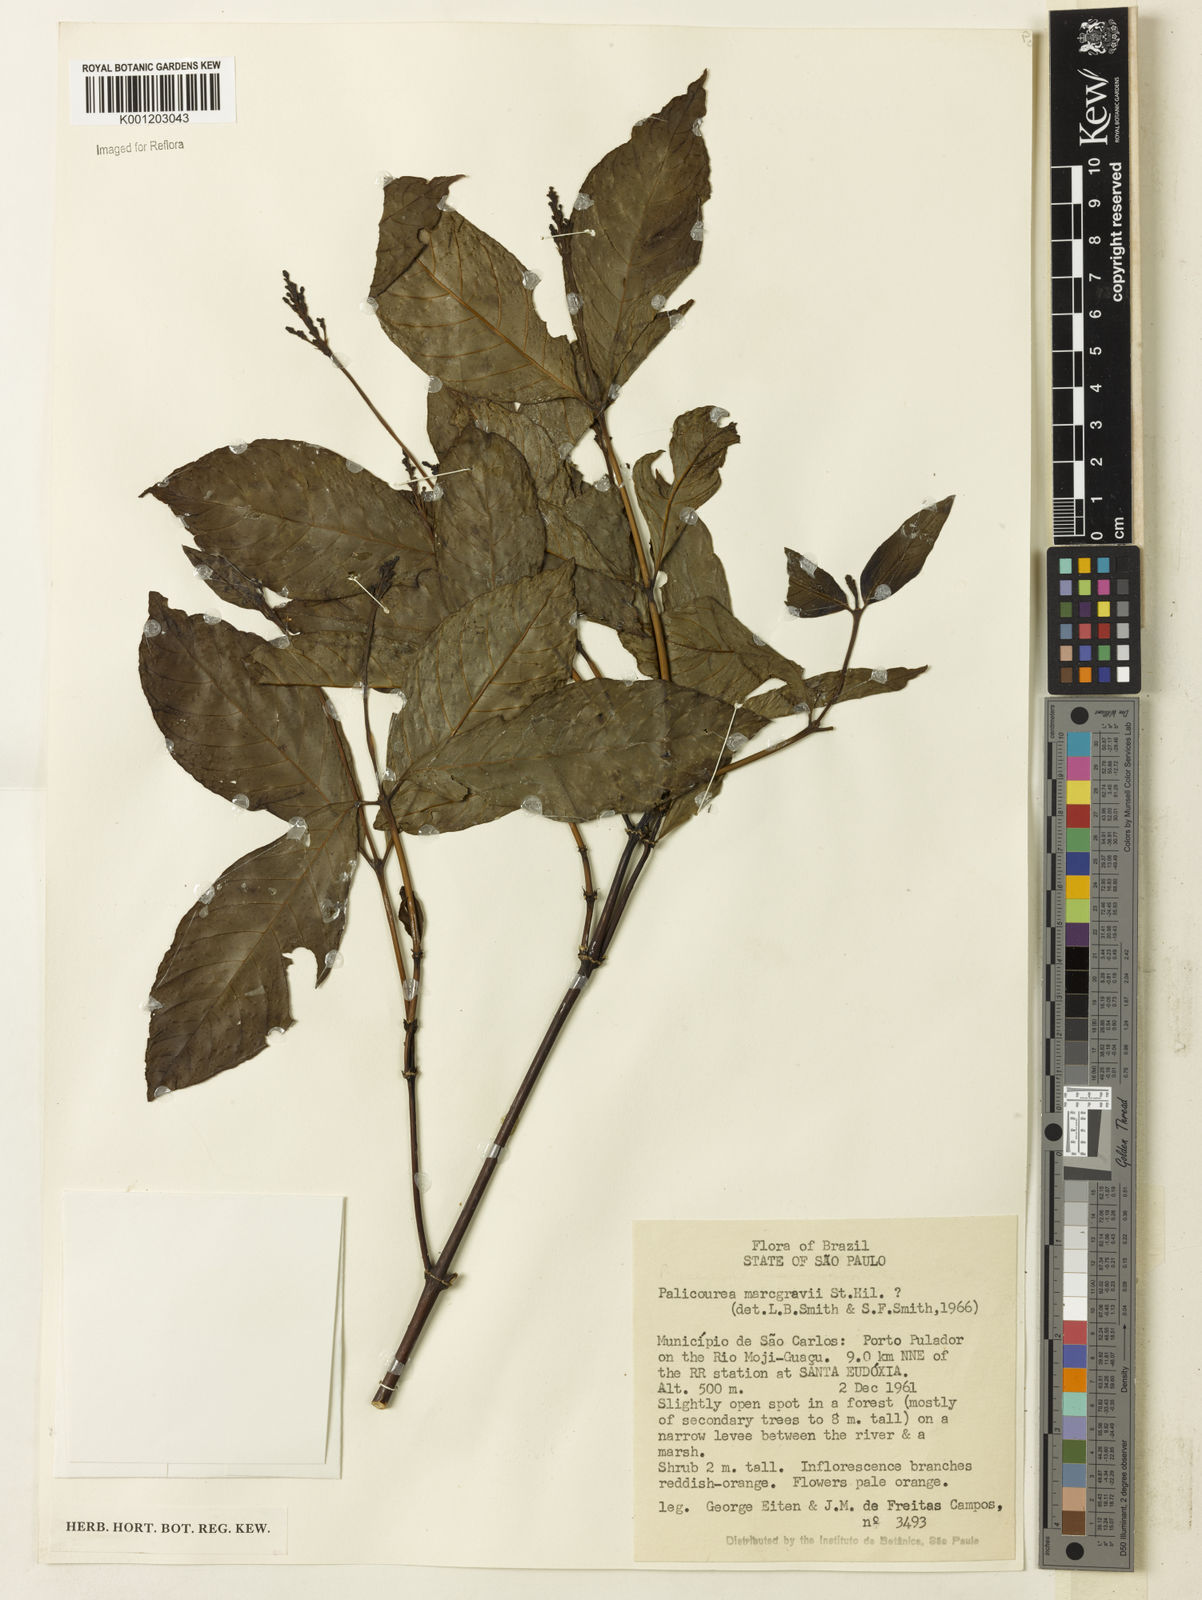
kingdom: Plantae
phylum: Tracheophyta
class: Magnoliopsida
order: Gentianales
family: Rubiaceae
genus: Palicourea
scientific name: Palicourea marcgravii
